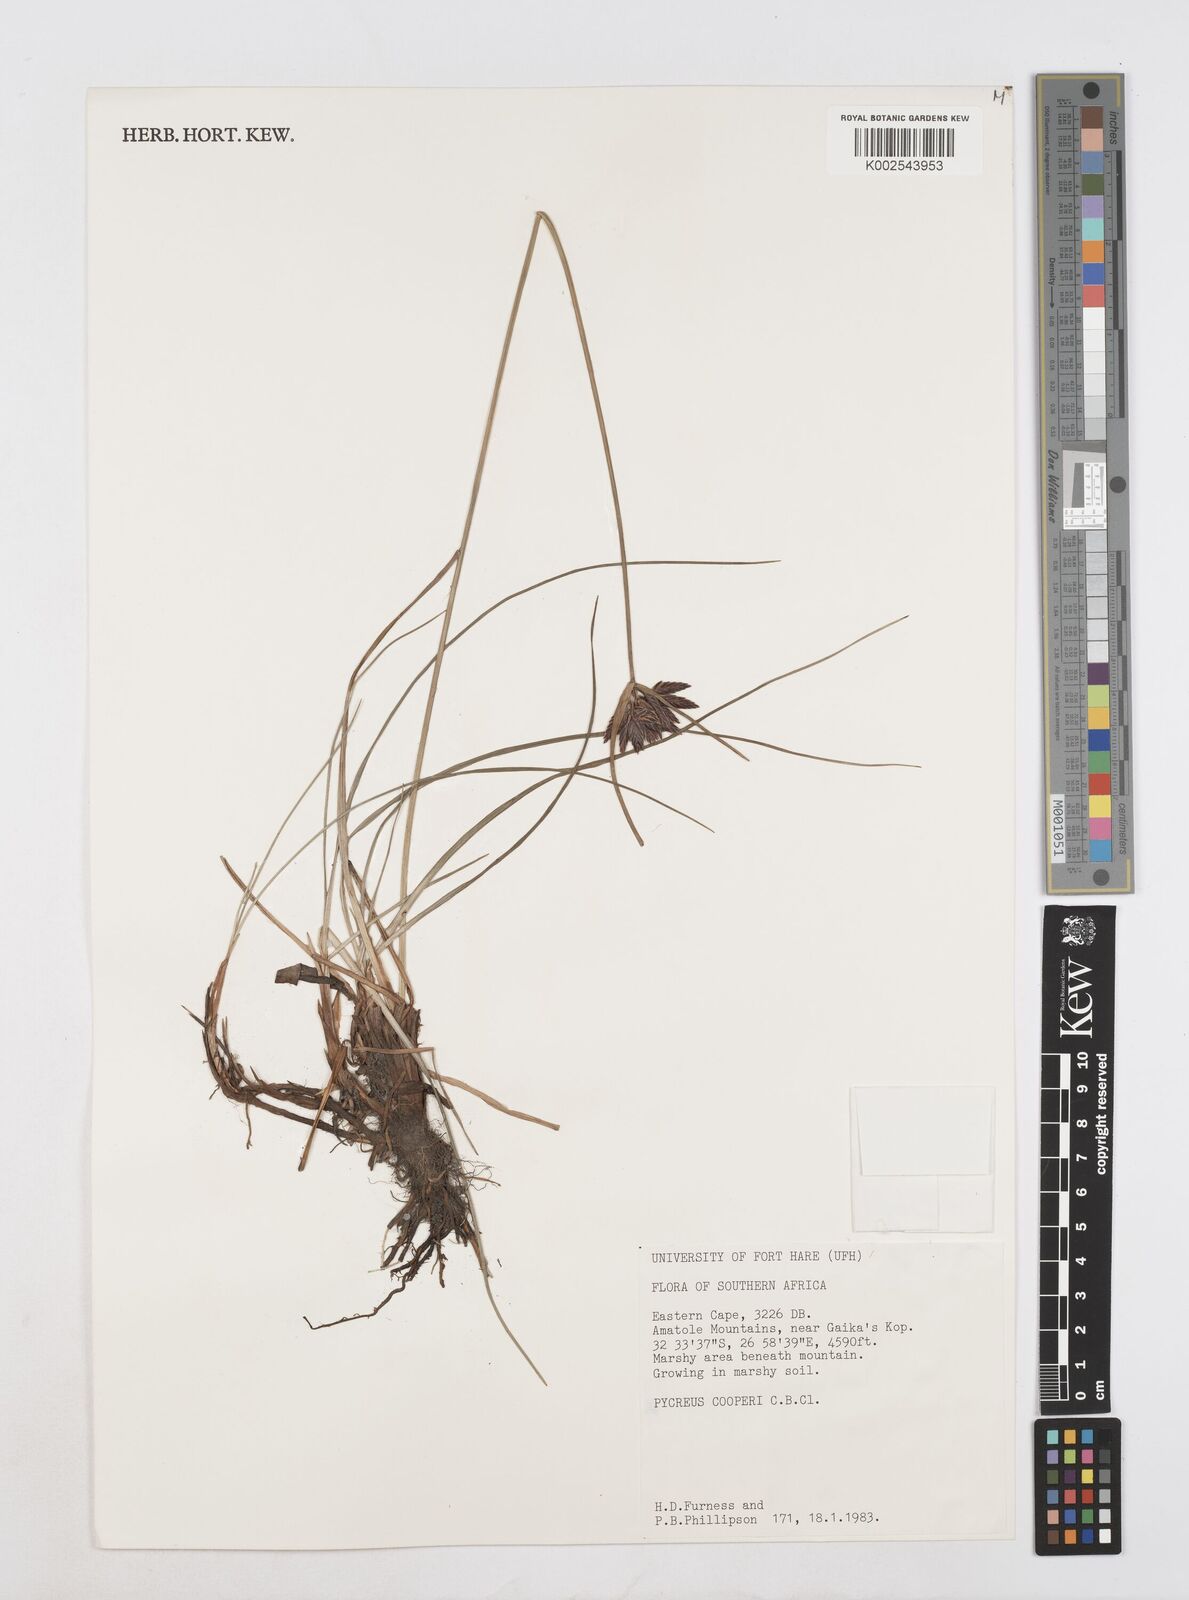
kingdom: Plantae
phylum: Tracheophyta
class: Liliopsida
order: Poales
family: Cyperaceae
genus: Cyperus
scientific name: Cyperus
